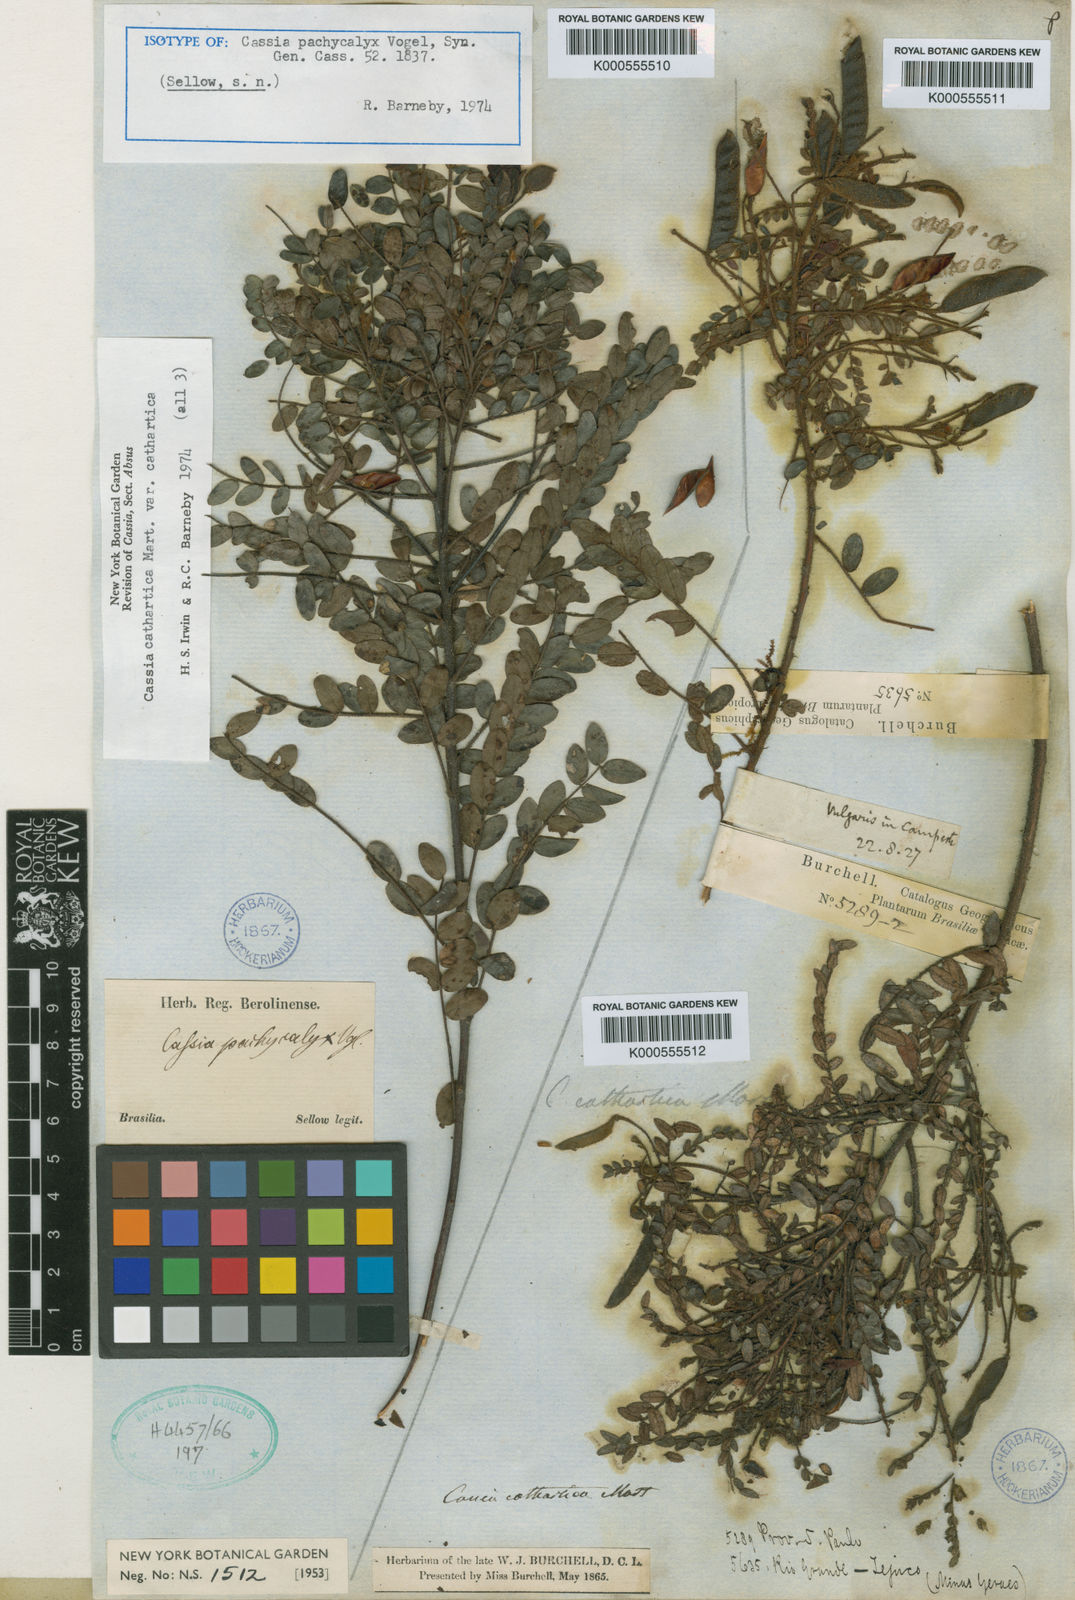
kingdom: Plantae
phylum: Tracheophyta
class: Magnoliopsida
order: Fabales
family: Fabaceae
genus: Chamaecrista
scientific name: Chamaecrista cathartica
